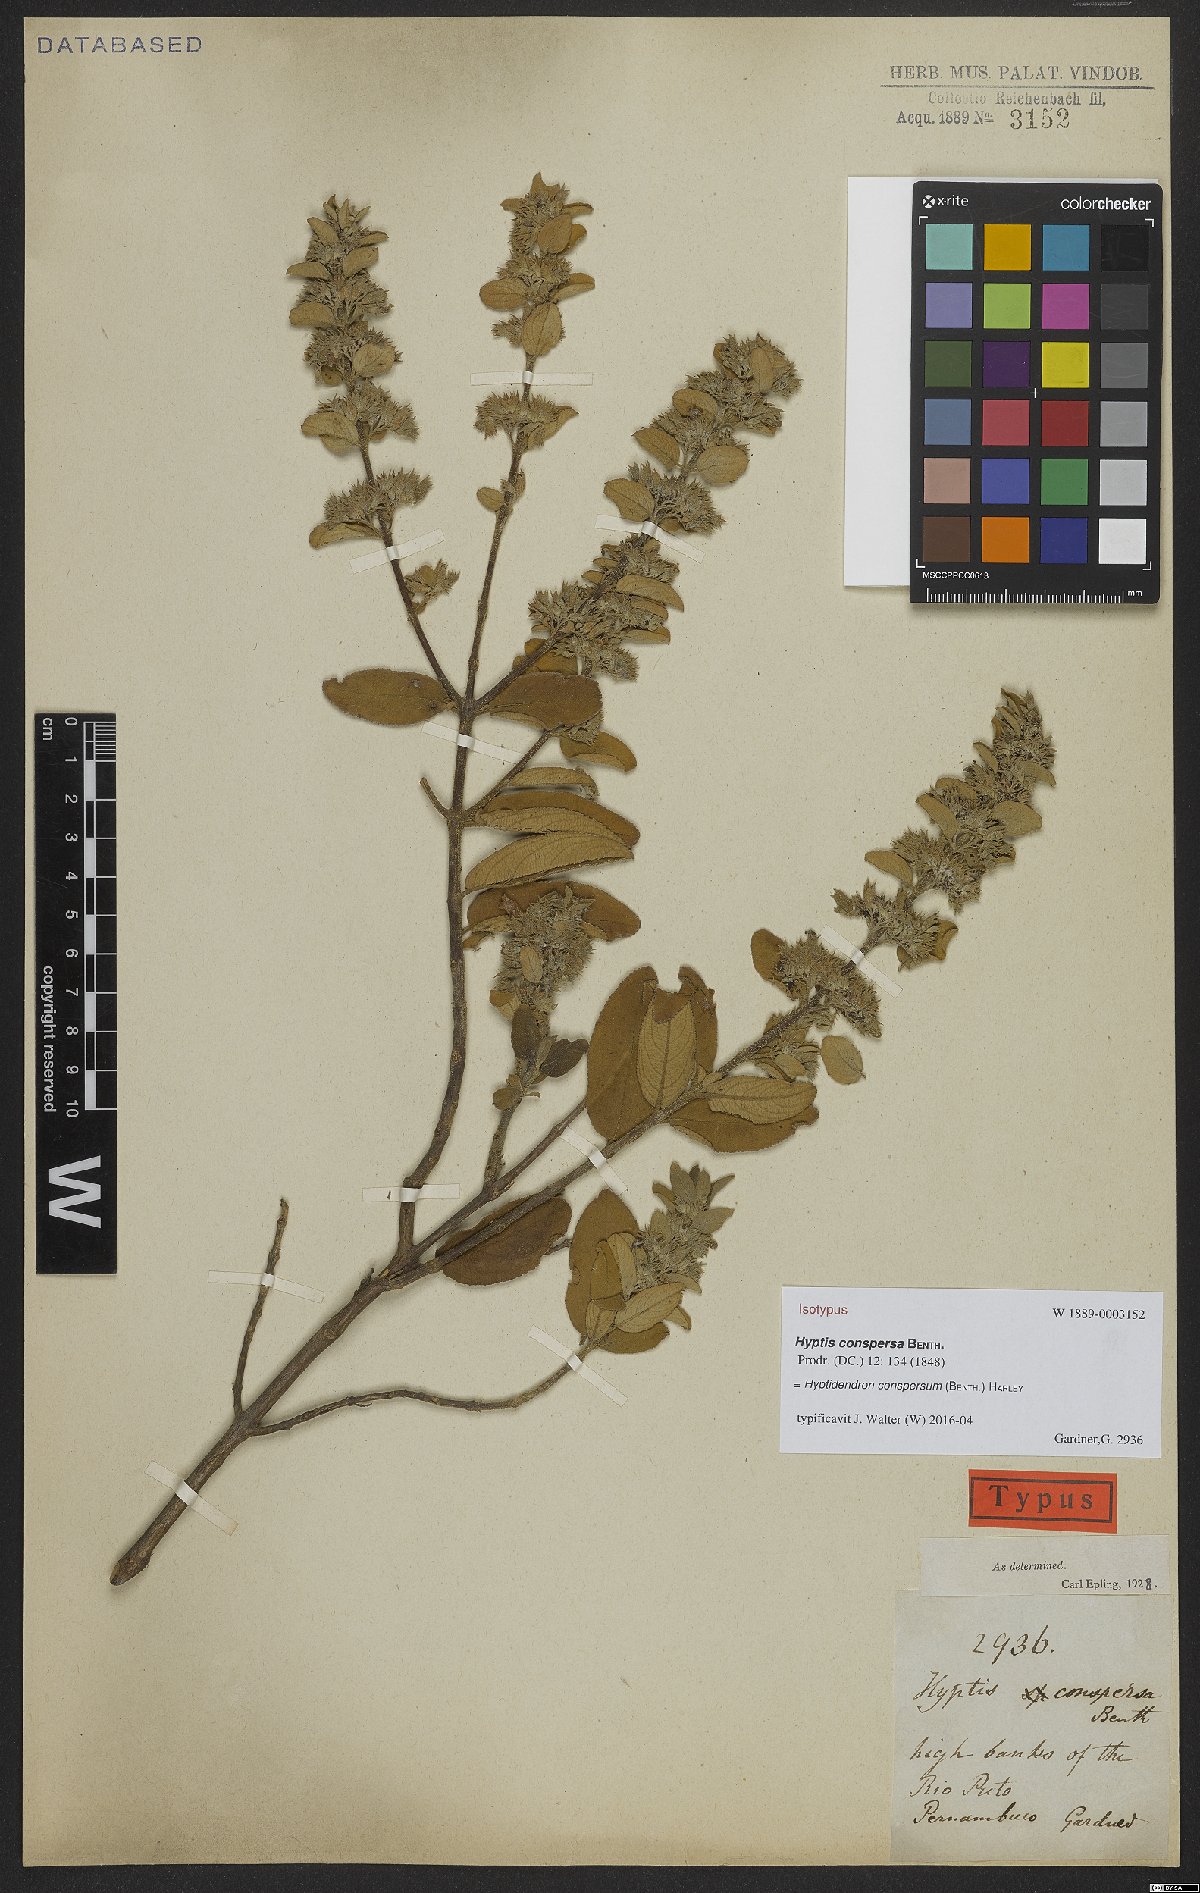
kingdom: Plantae
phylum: Tracheophyta
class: Magnoliopsida
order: Lamiales
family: Lamiaceae
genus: Hyptidendron
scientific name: Hyptidendron conspersum
